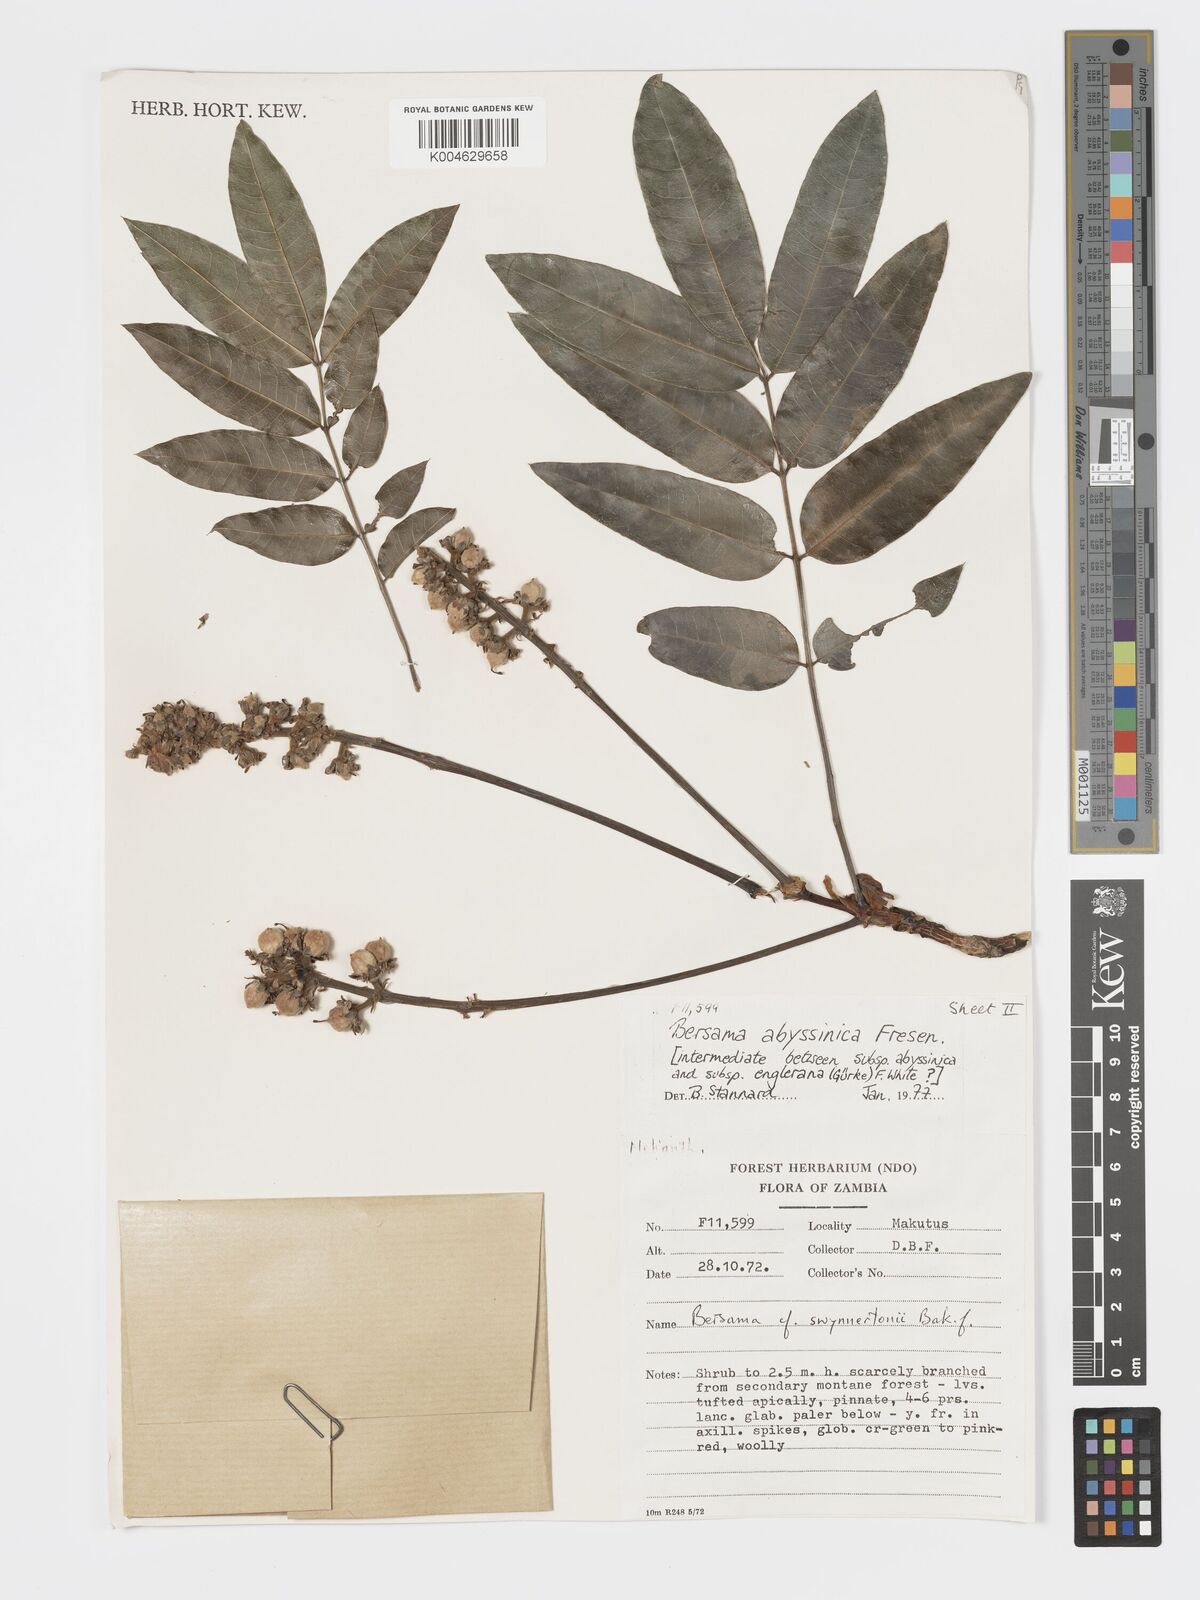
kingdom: Plantae
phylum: Tracheophyta
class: Magnoliopsida
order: Geraniales
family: Francoaceae
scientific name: Francoaceae
